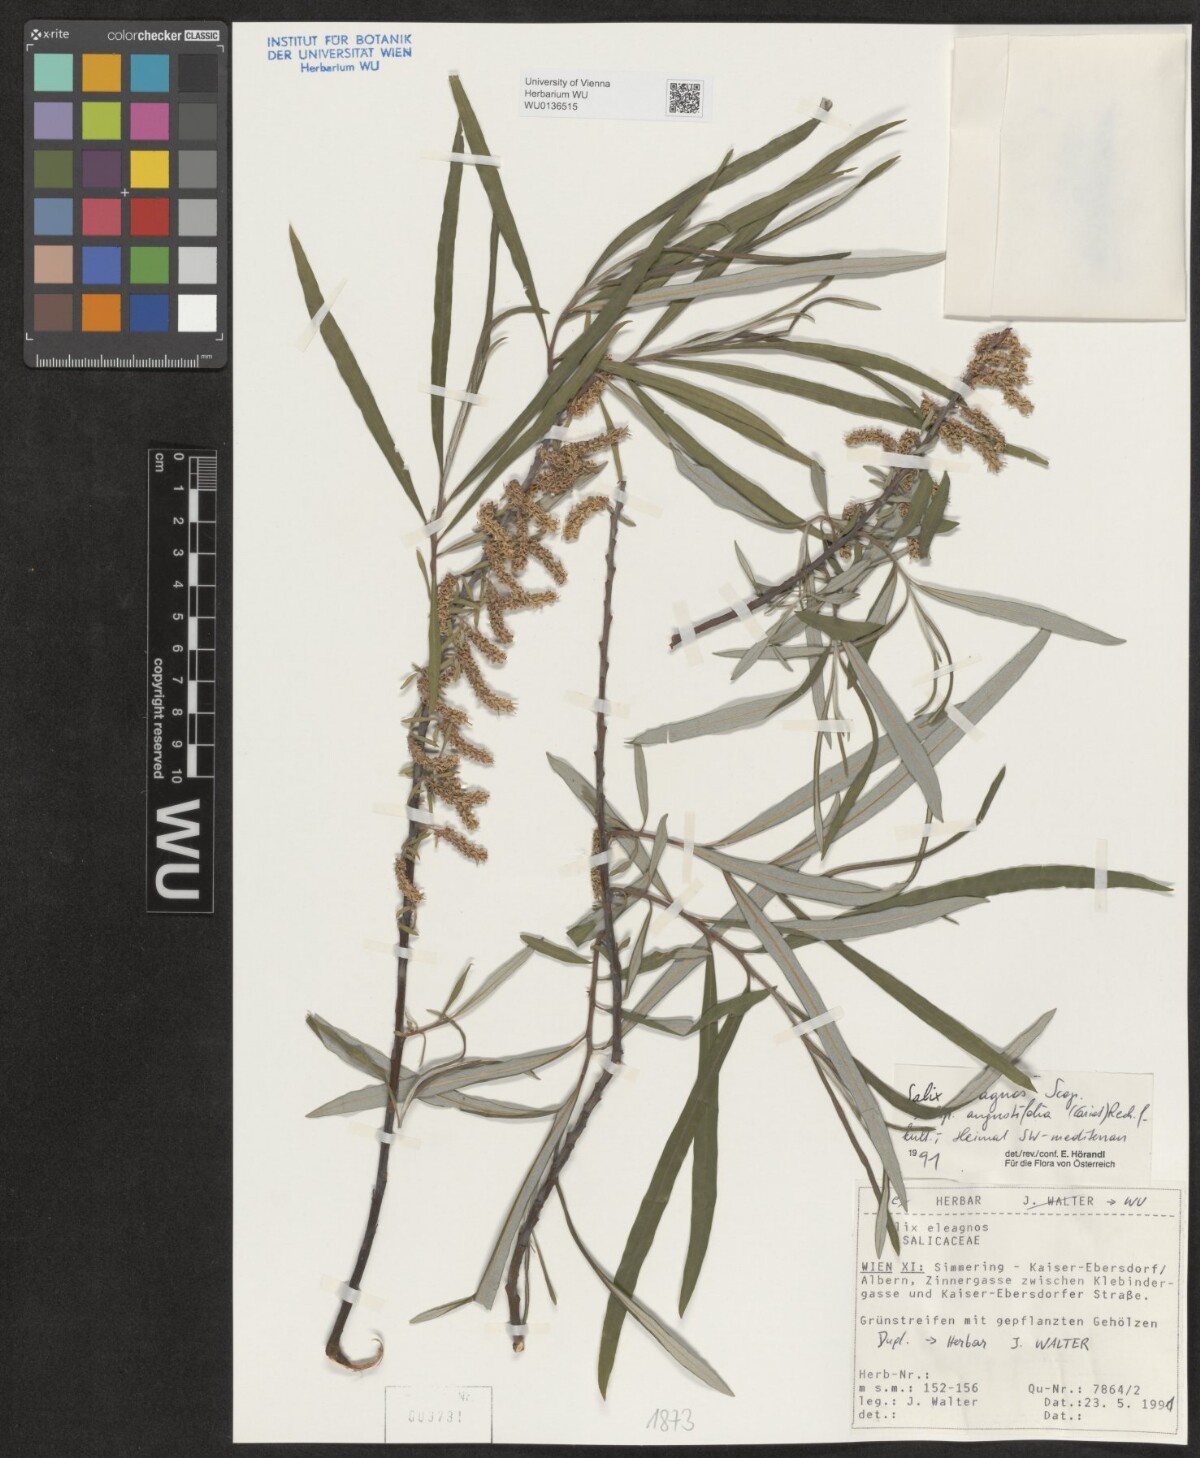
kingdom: Plantae
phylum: Tracheophyta
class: Magnoliopsida
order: Malpighiales
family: Salicaceae
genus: Salix
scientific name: Salix eleagnos
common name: Elaeagnus willow
